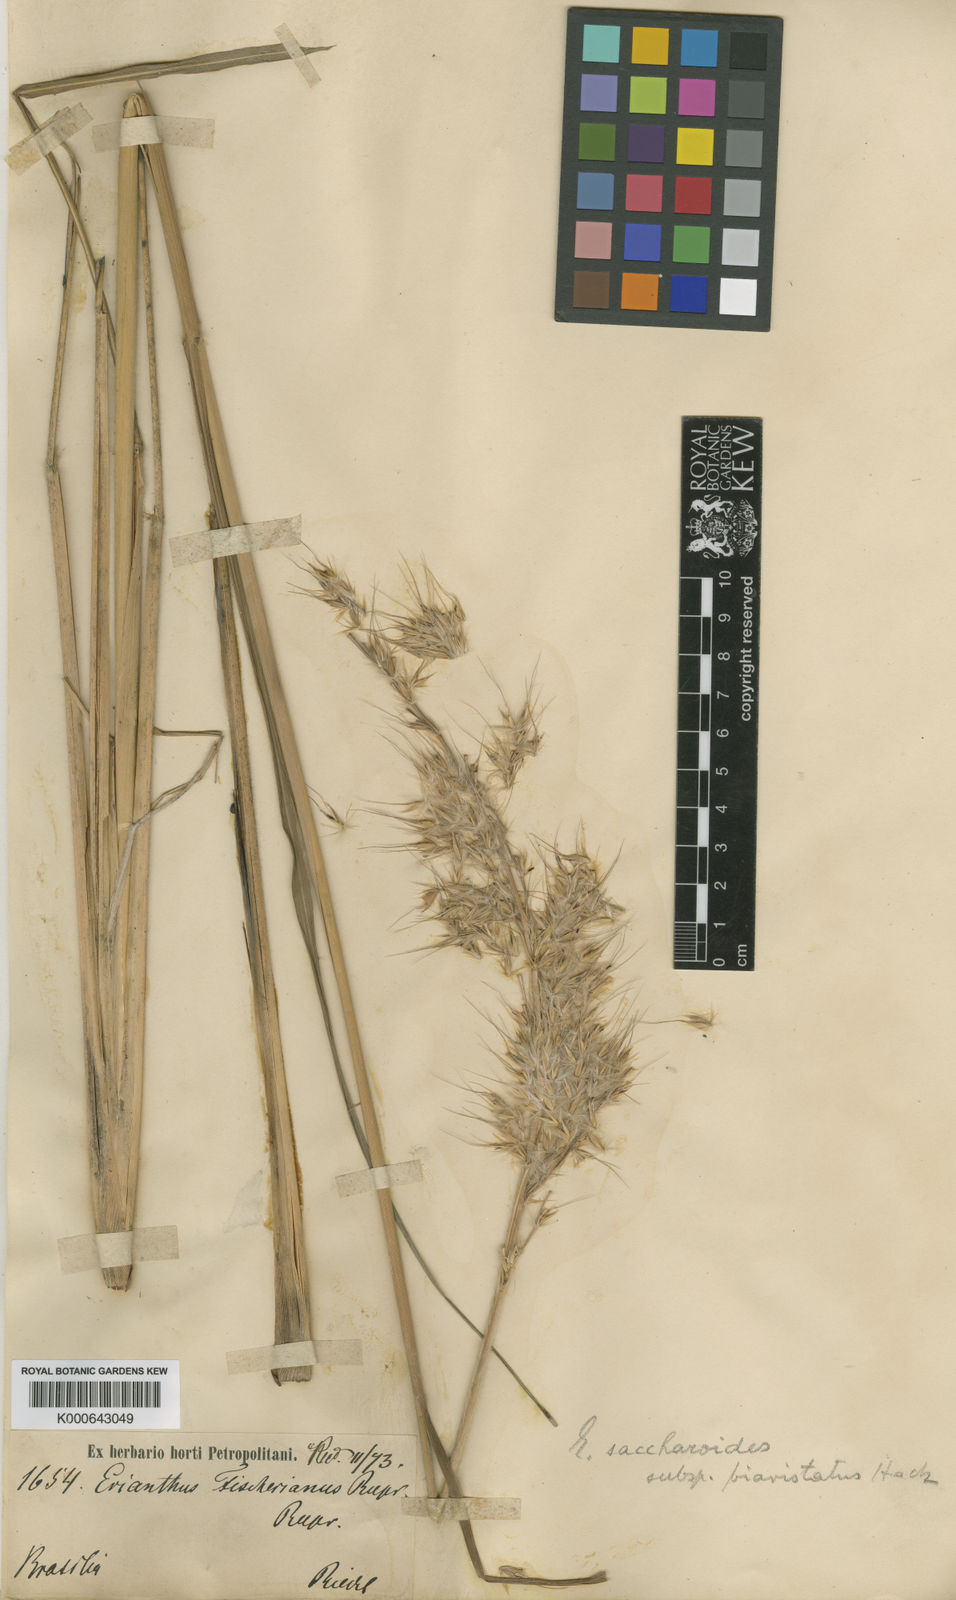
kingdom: Plantae
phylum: Tracheophyta
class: Liliopsida
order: Poales
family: Poaceae
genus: Saccharum
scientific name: Saccharum angustifolium
